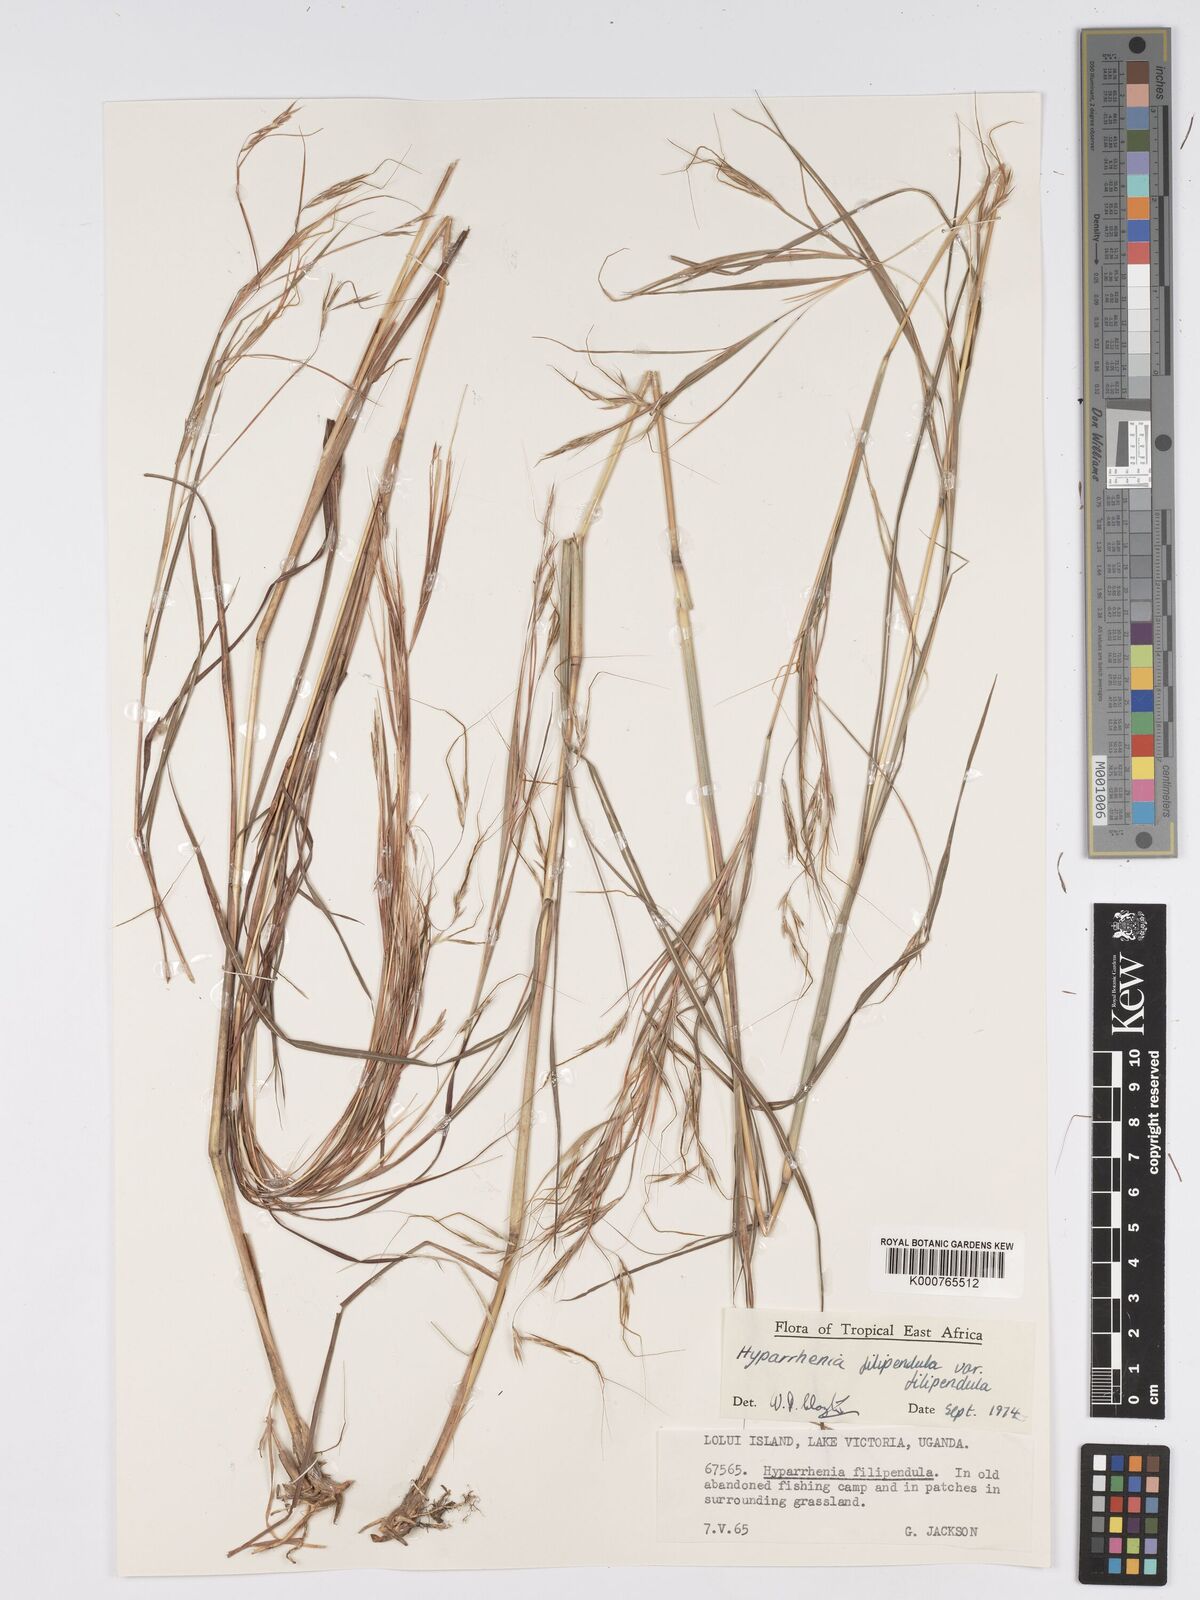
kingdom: Plantae
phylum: Tracheophyta
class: Liliopsida
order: Poales
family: Poaceae
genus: Hyparrhenia
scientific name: Hyparrhenia filipendula
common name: Tambookie grass
